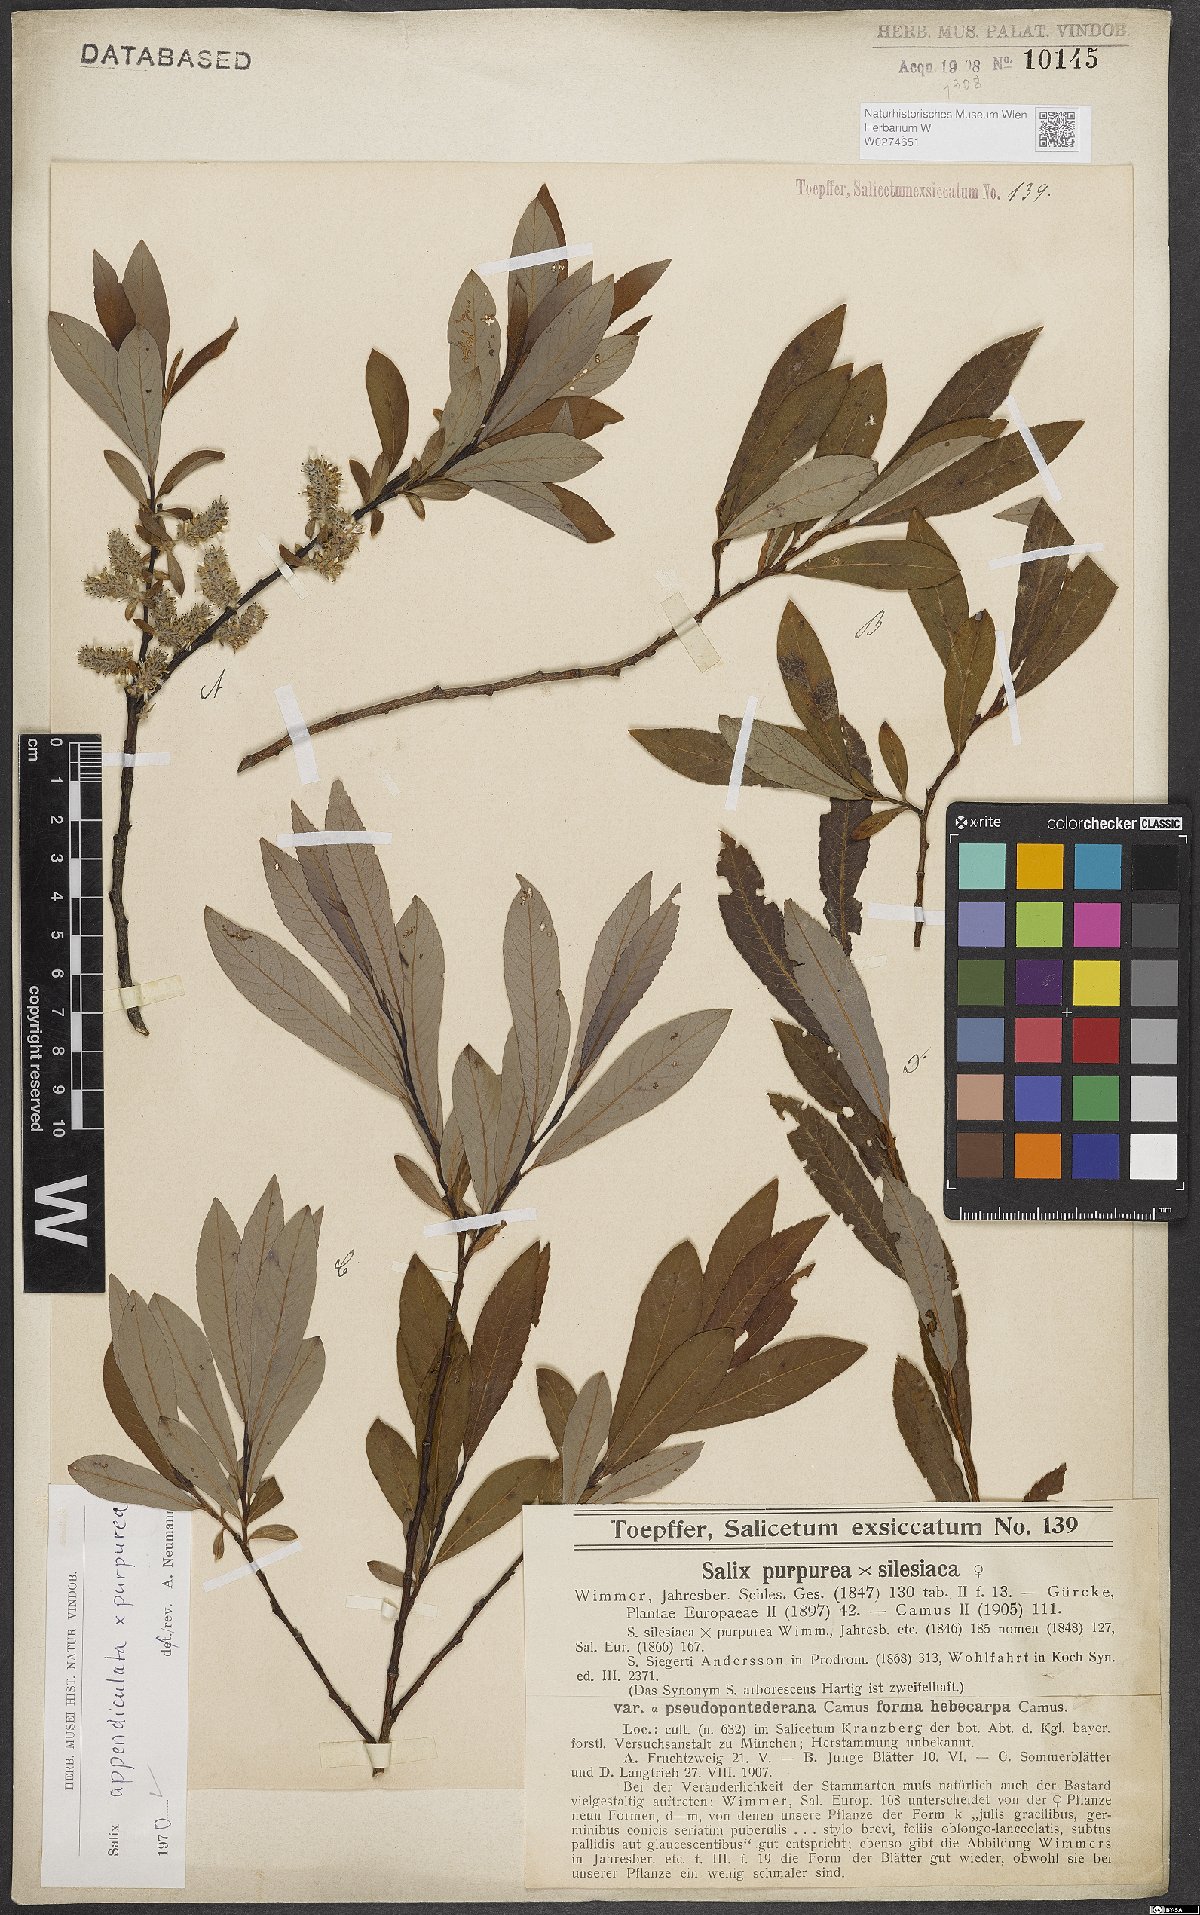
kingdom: Plantae
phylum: Tracheophyta
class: Magnoliopsida
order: Malpighiales
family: Salicaceae
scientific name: Salicaceae
